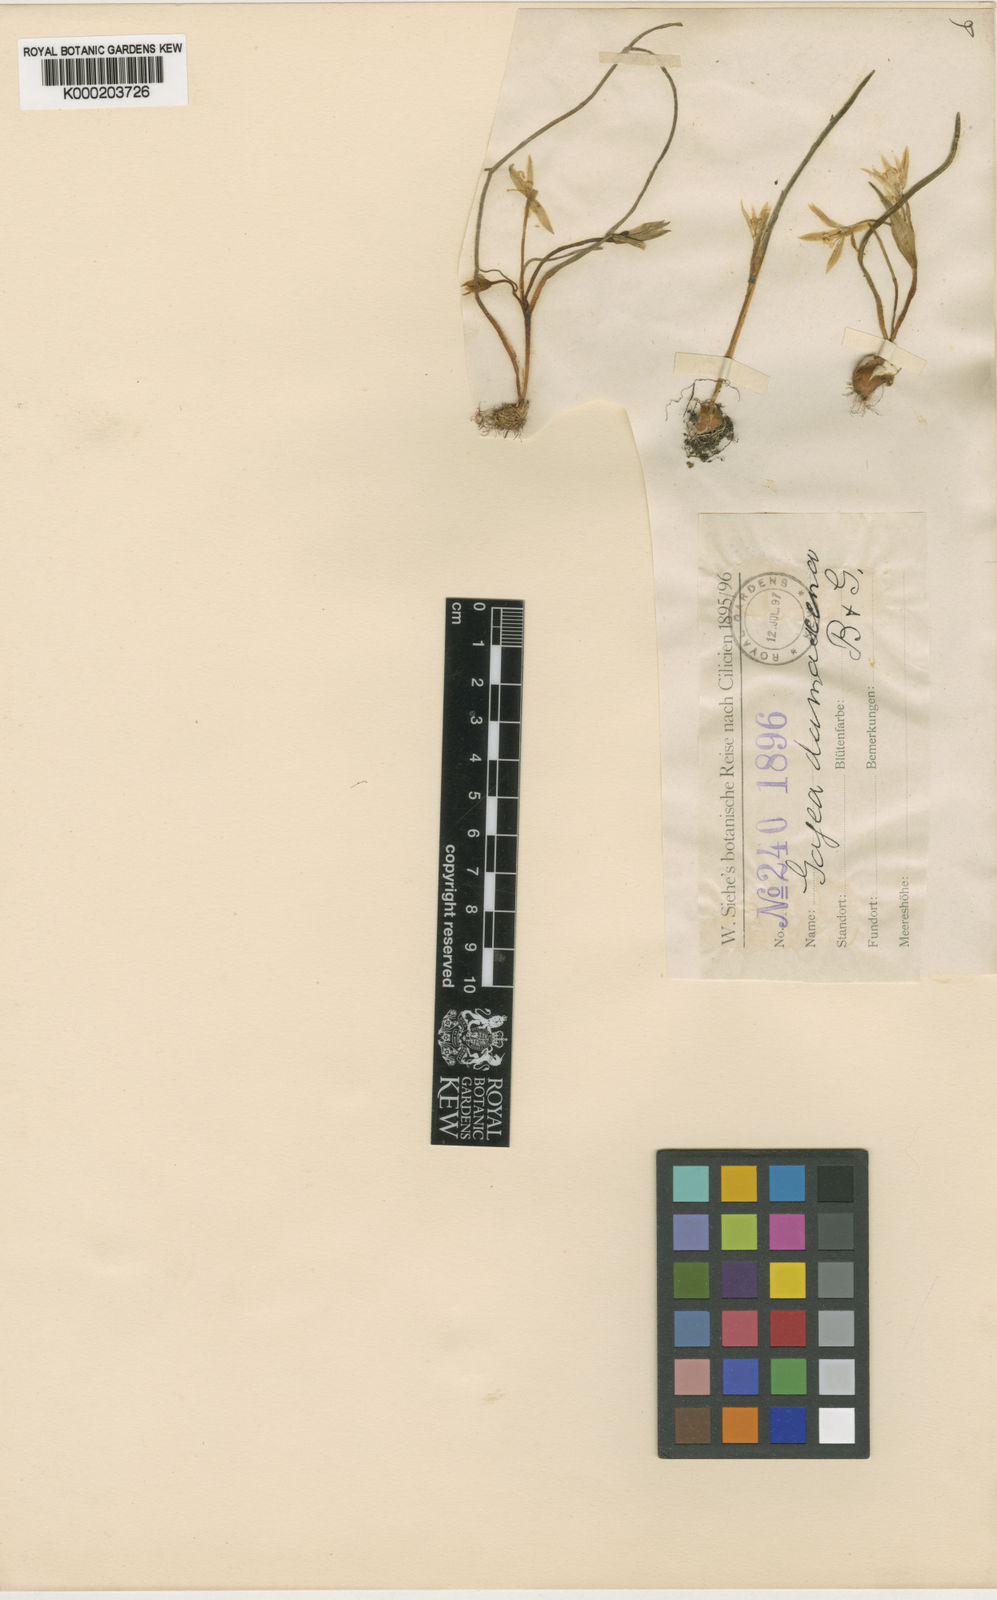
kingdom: Plantae
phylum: Tracheophyta
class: Liliopsida
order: Liliales
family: Liliaceae
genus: Gagea
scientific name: Gagea chlorantha
